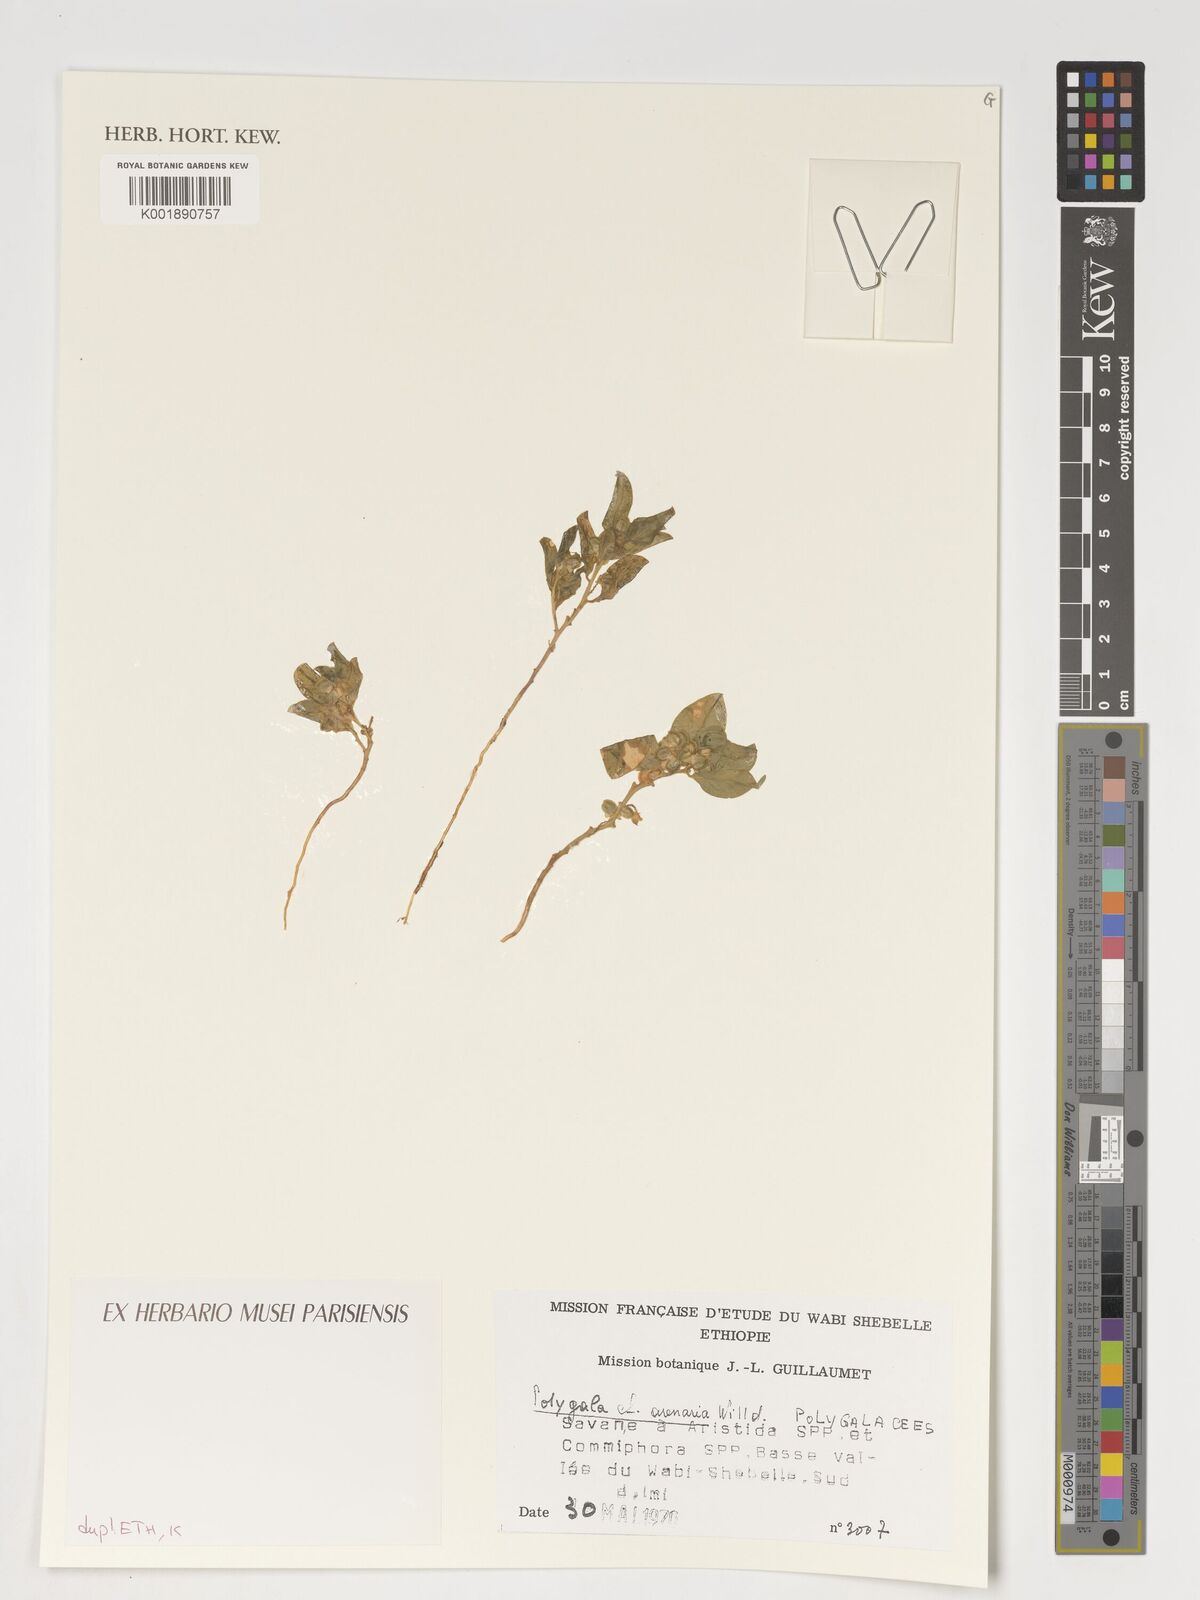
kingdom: Plantae
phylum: Tracheophyta
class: Magnoliopsida
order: Fabales
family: Polygalaceae
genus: Polygala
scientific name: Polygala arenaria
